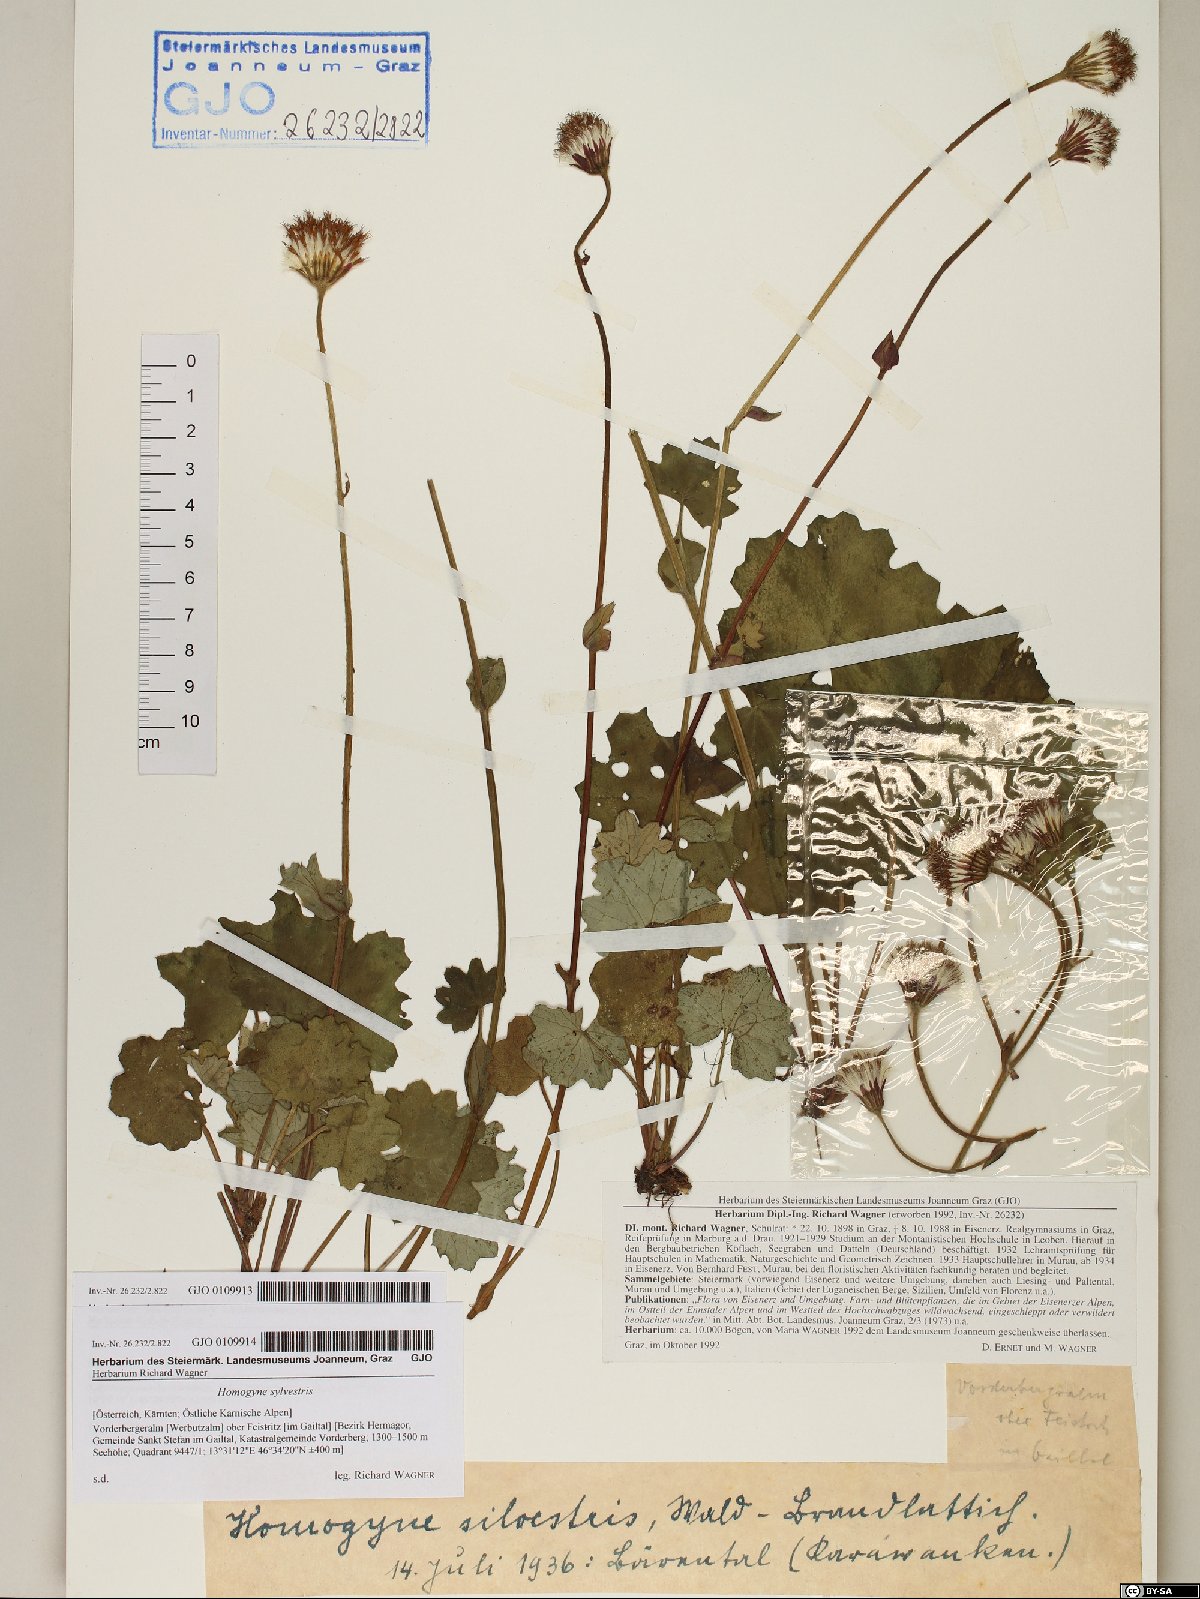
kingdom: Plantae
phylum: Tracheophyta
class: Magnoliopsida
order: Asterales
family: Asteraceae
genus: Homogyne
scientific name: Homogyne sylvestris
